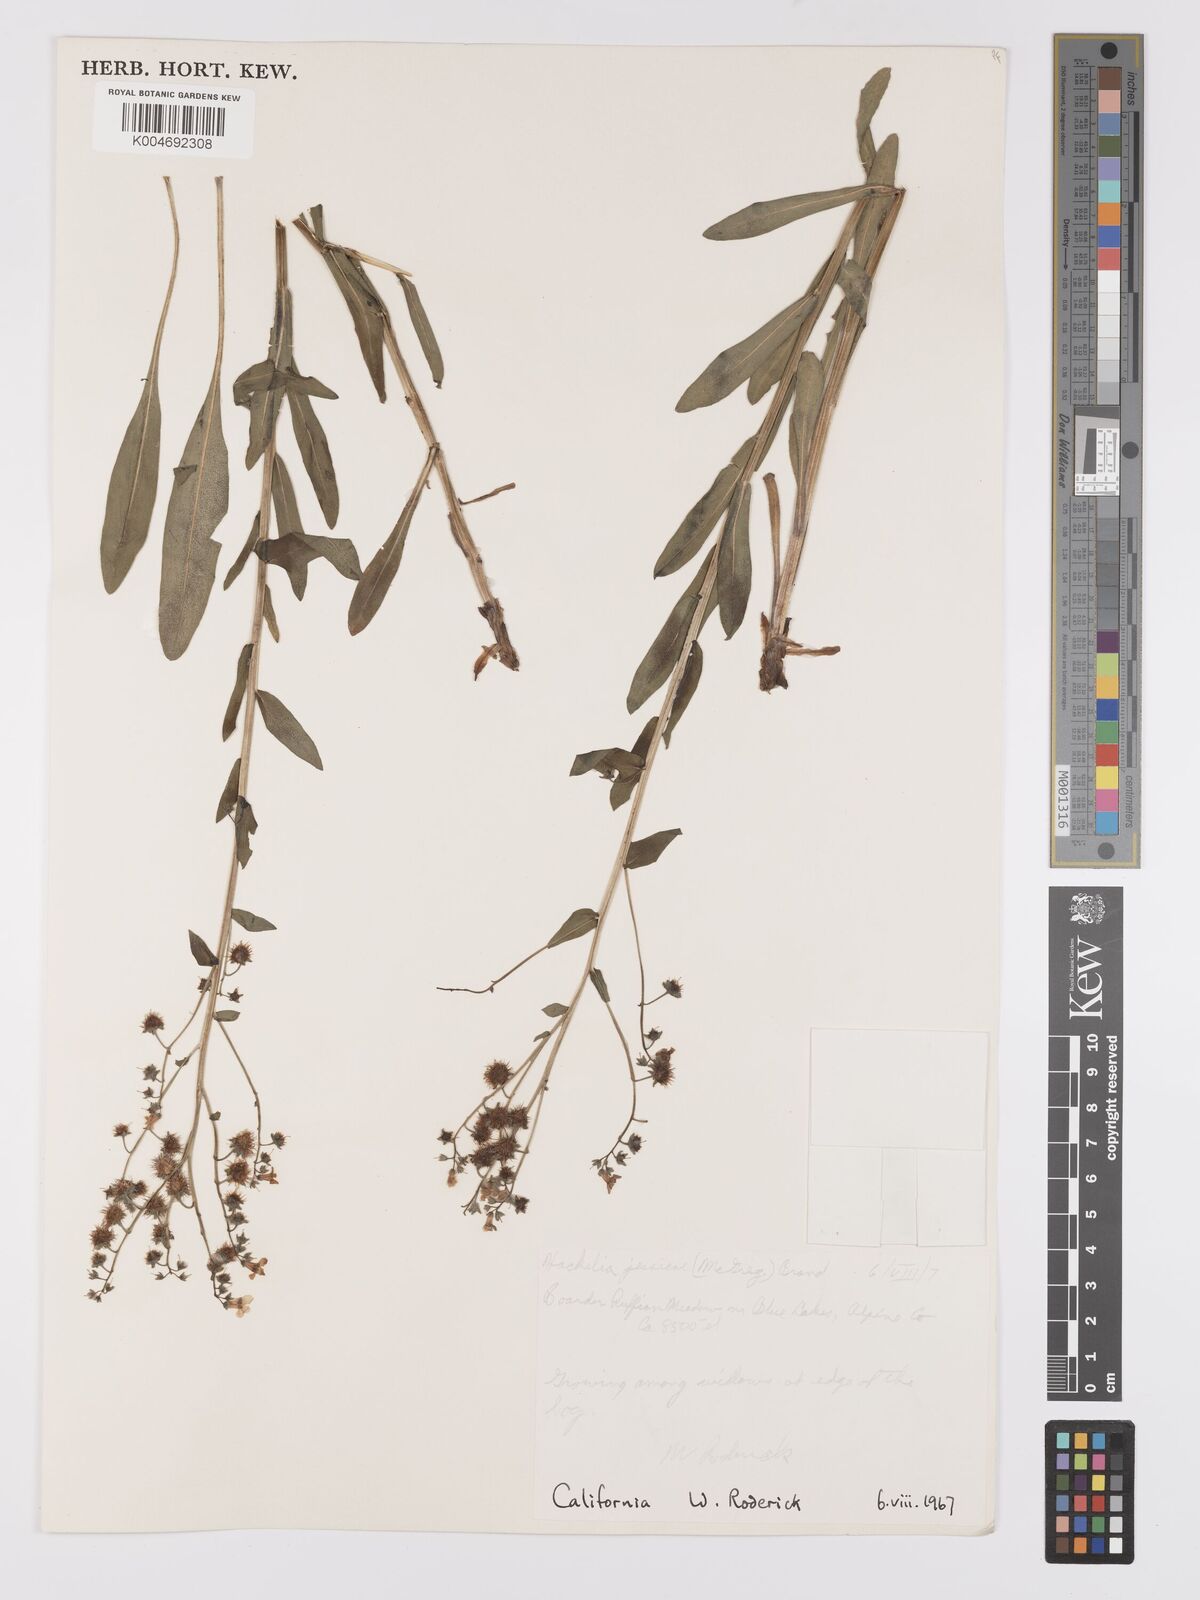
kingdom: Plantae
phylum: Tracheophyta
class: Magnoliopsida
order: Boraginales
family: Boraginaceae
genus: Hackelia
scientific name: Hackelia micrantha
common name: Meadow stickseed
